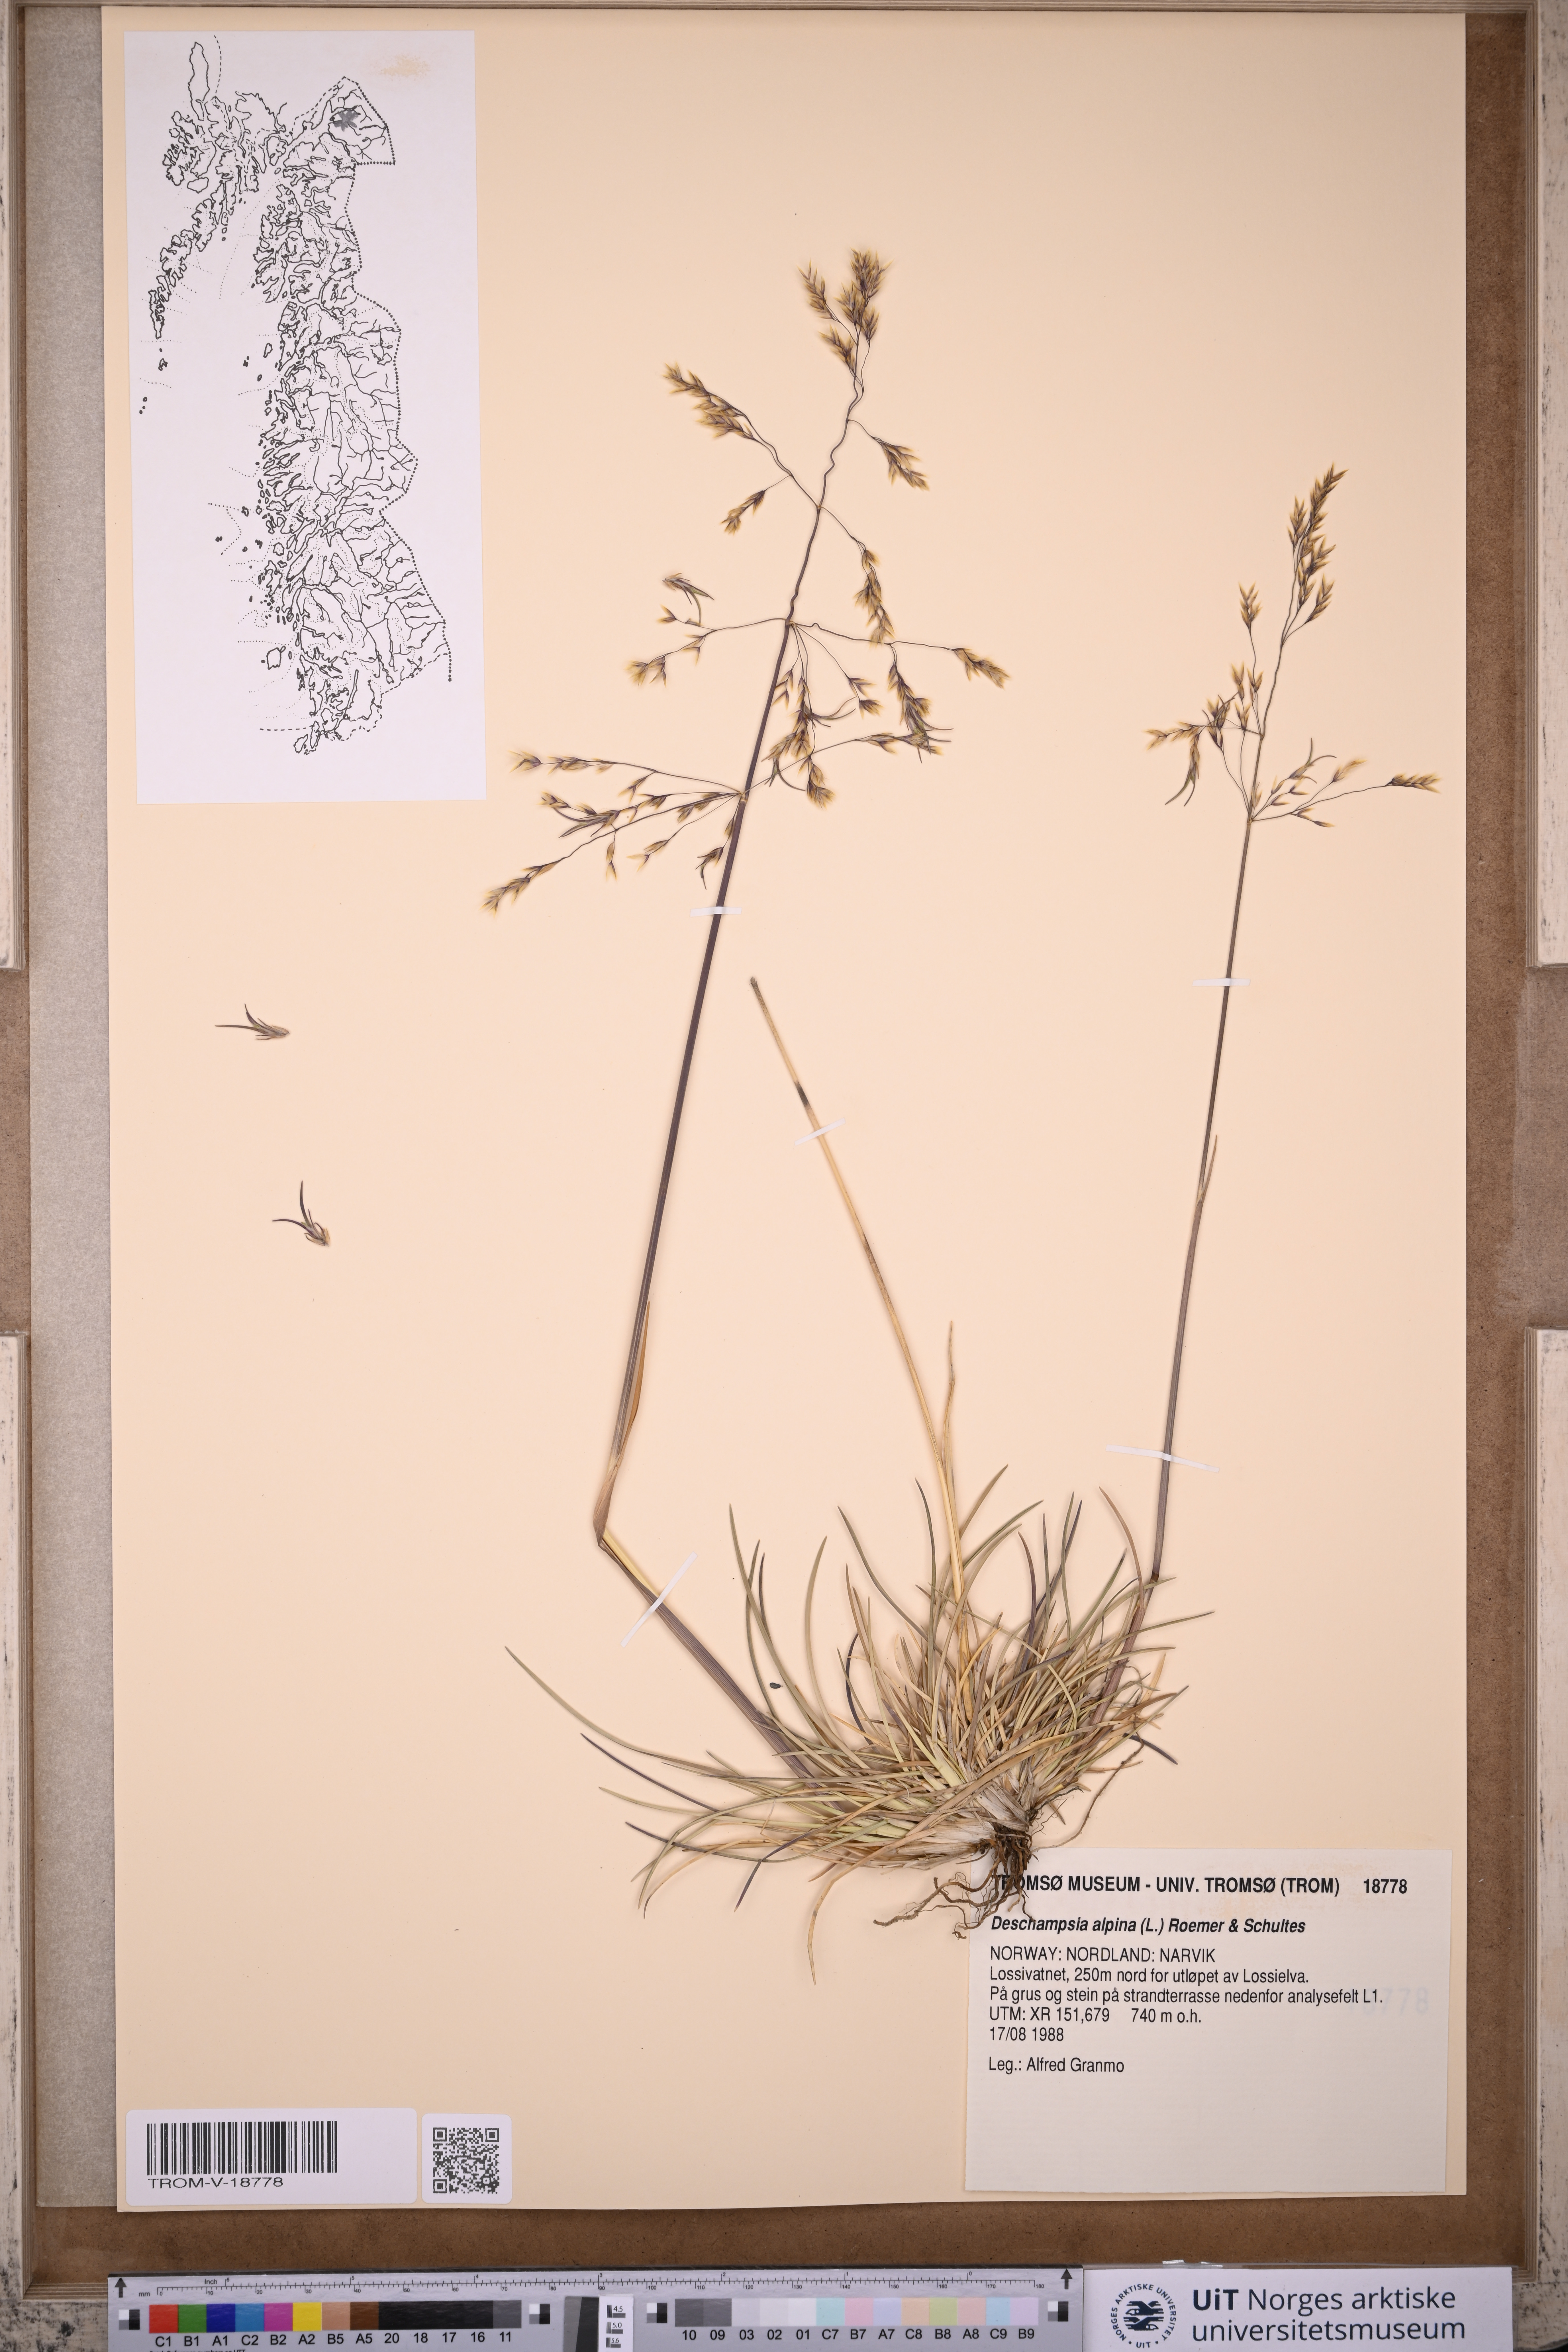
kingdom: Plantae
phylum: Tracheophyta
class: Liliopsida
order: Poales
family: Poaceae
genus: Deschampsia
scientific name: Deschampsia cespitosa
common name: Tufted hair-grass
